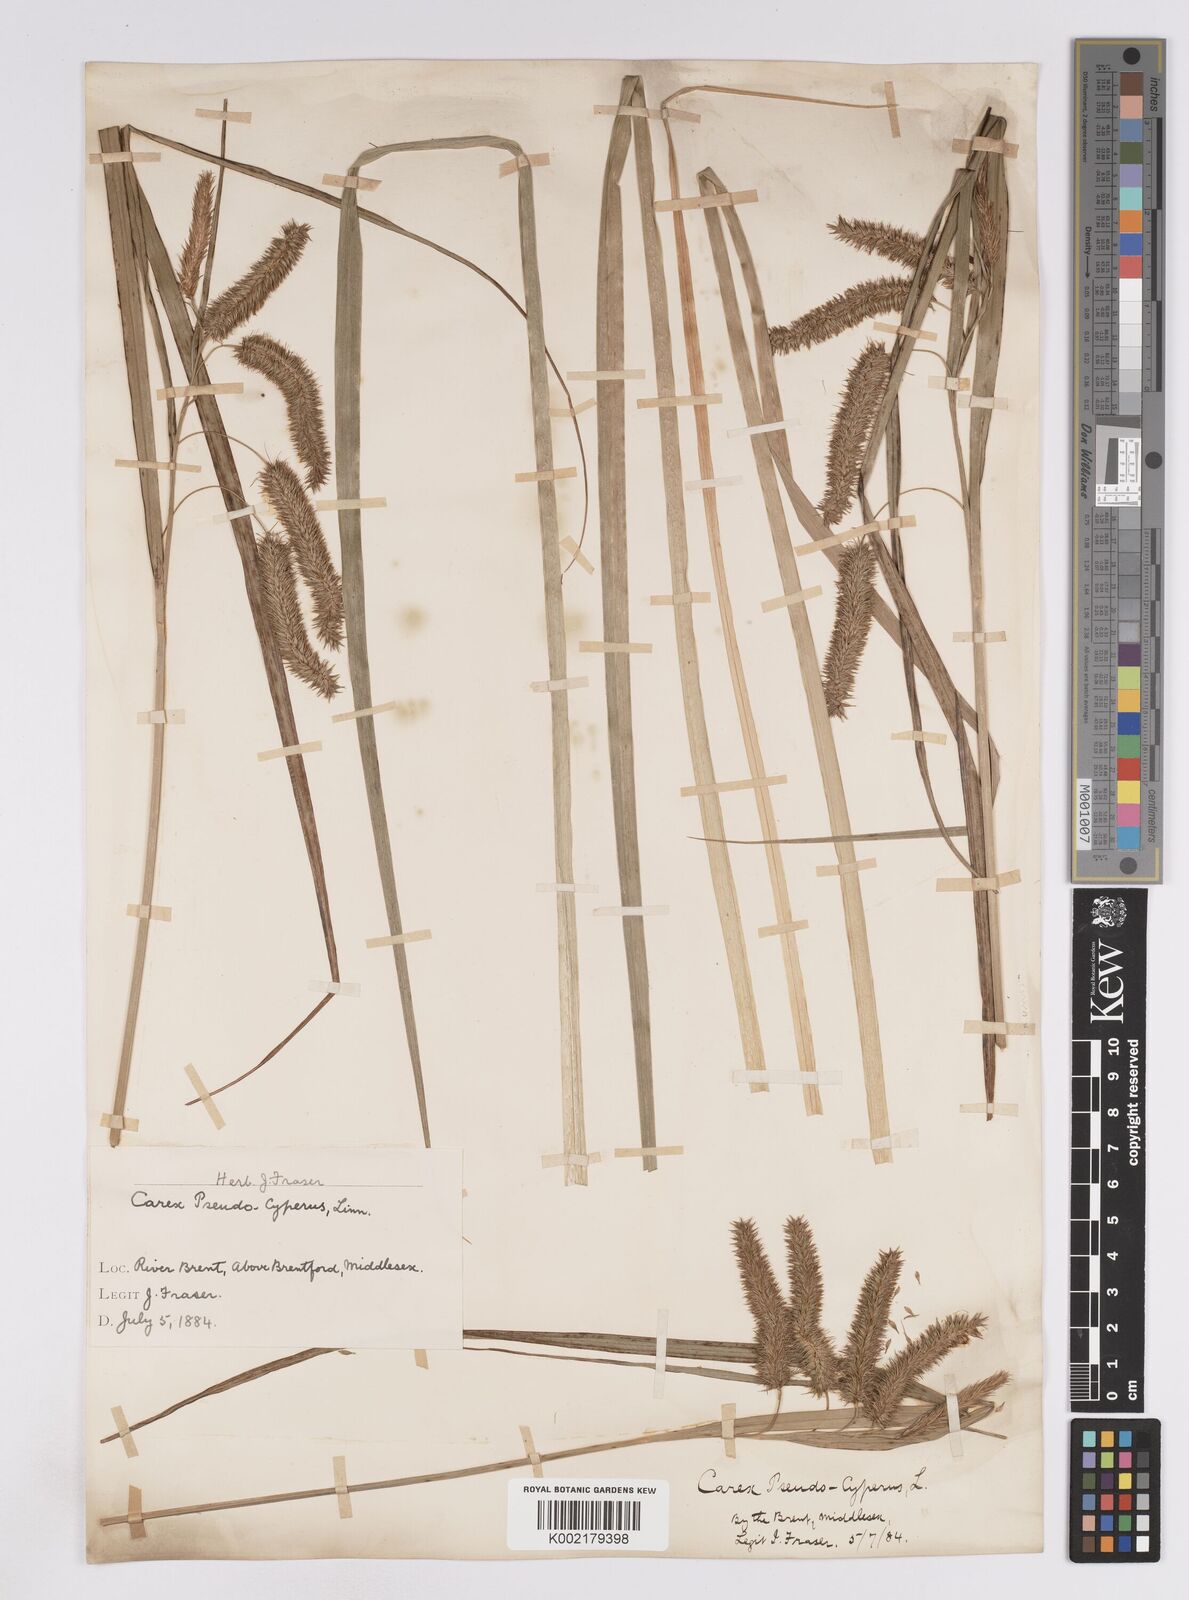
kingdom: Plantae
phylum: Tracheophyta
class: Liliopsida
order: Poales
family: Cyperaceae
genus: Carex
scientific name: Carex pseudocyperus
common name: Cyperus sedge
